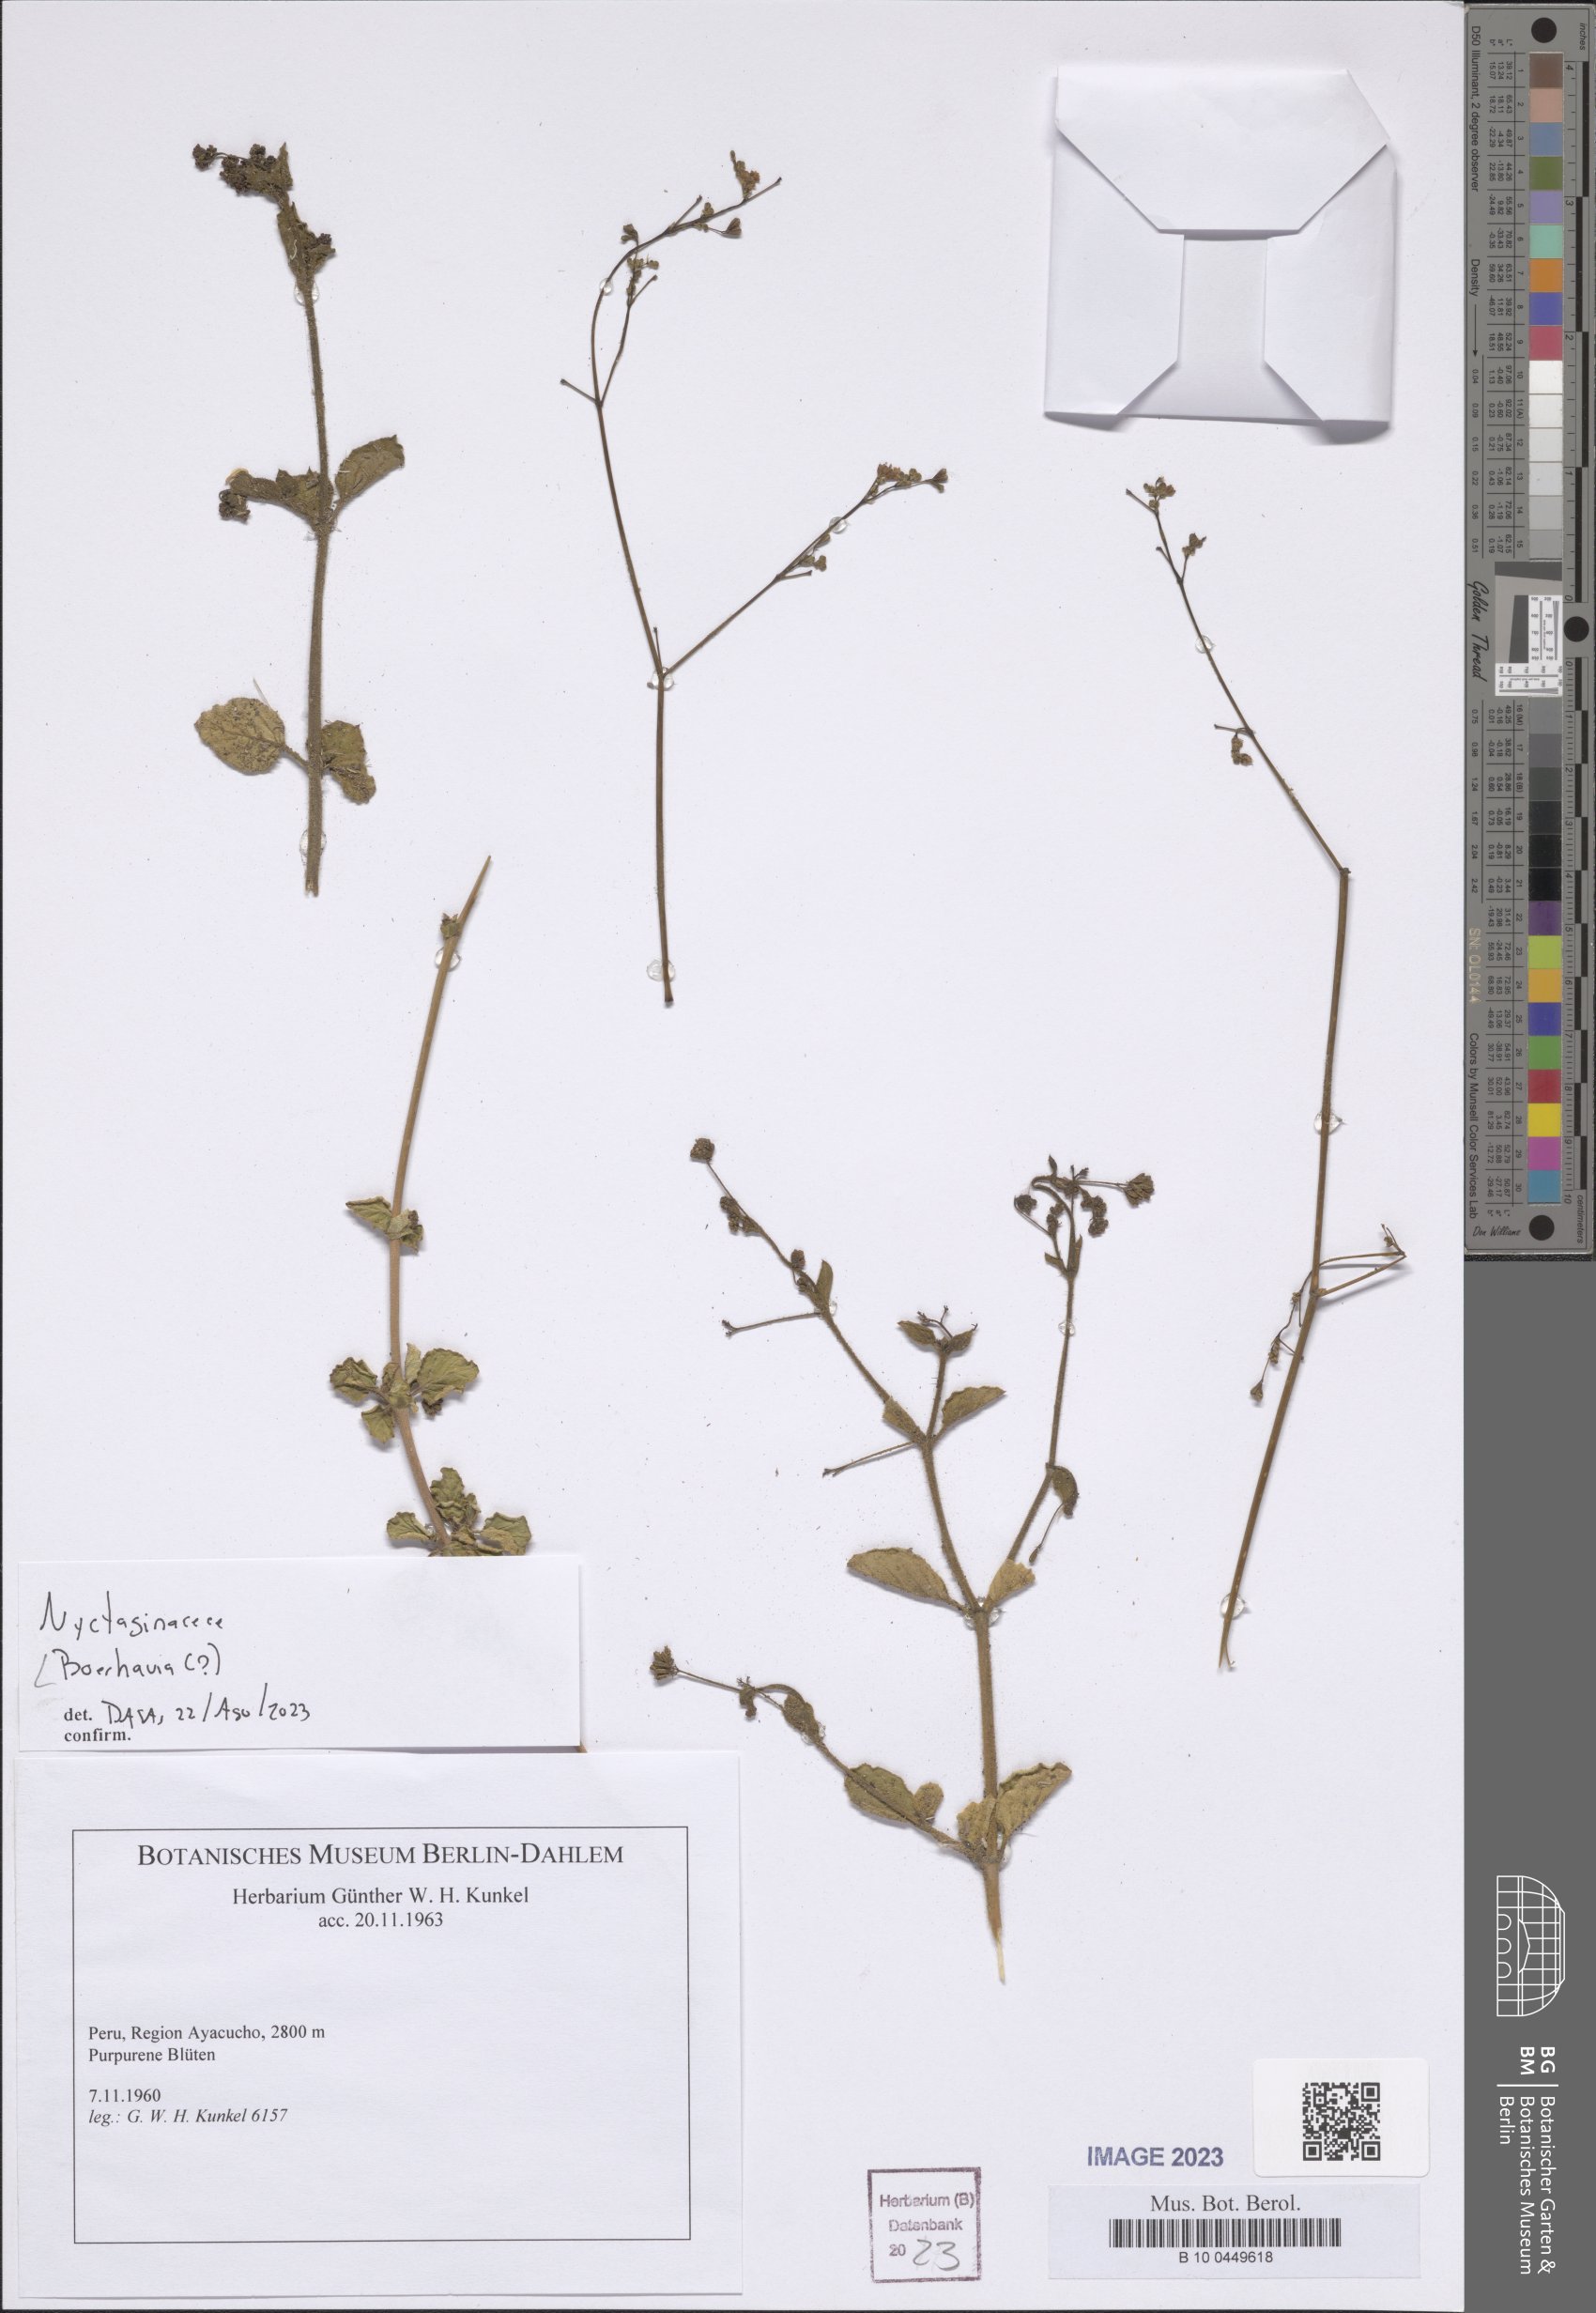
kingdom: Plantae
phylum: Tracheophyta
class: Magnoliopsida
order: Caryophyllales
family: Nyctaginaceae
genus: Boerhavia
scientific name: Boerhavia
